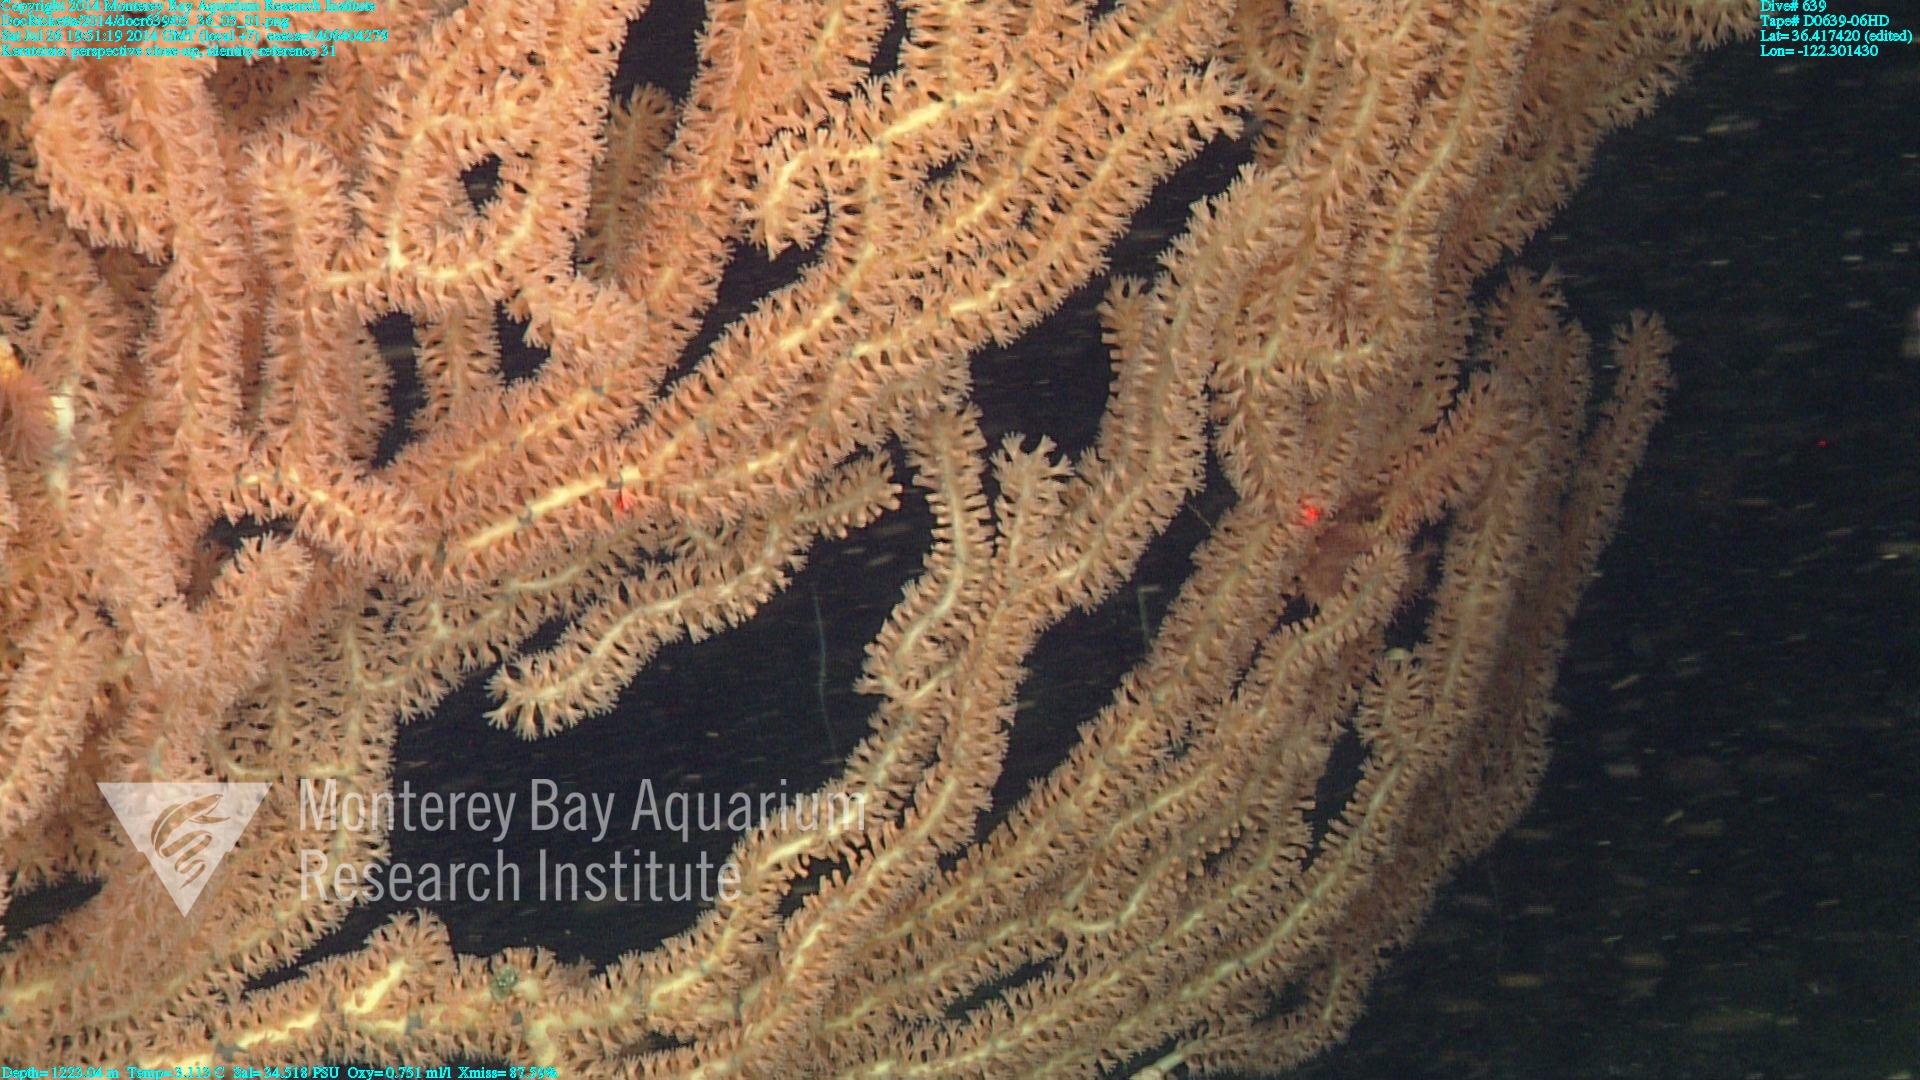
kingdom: Animalia
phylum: Cnidaria
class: Anthozoa
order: Scleralcyonacea
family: Keratoisididae
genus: Keratoisis
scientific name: Keratoisis
